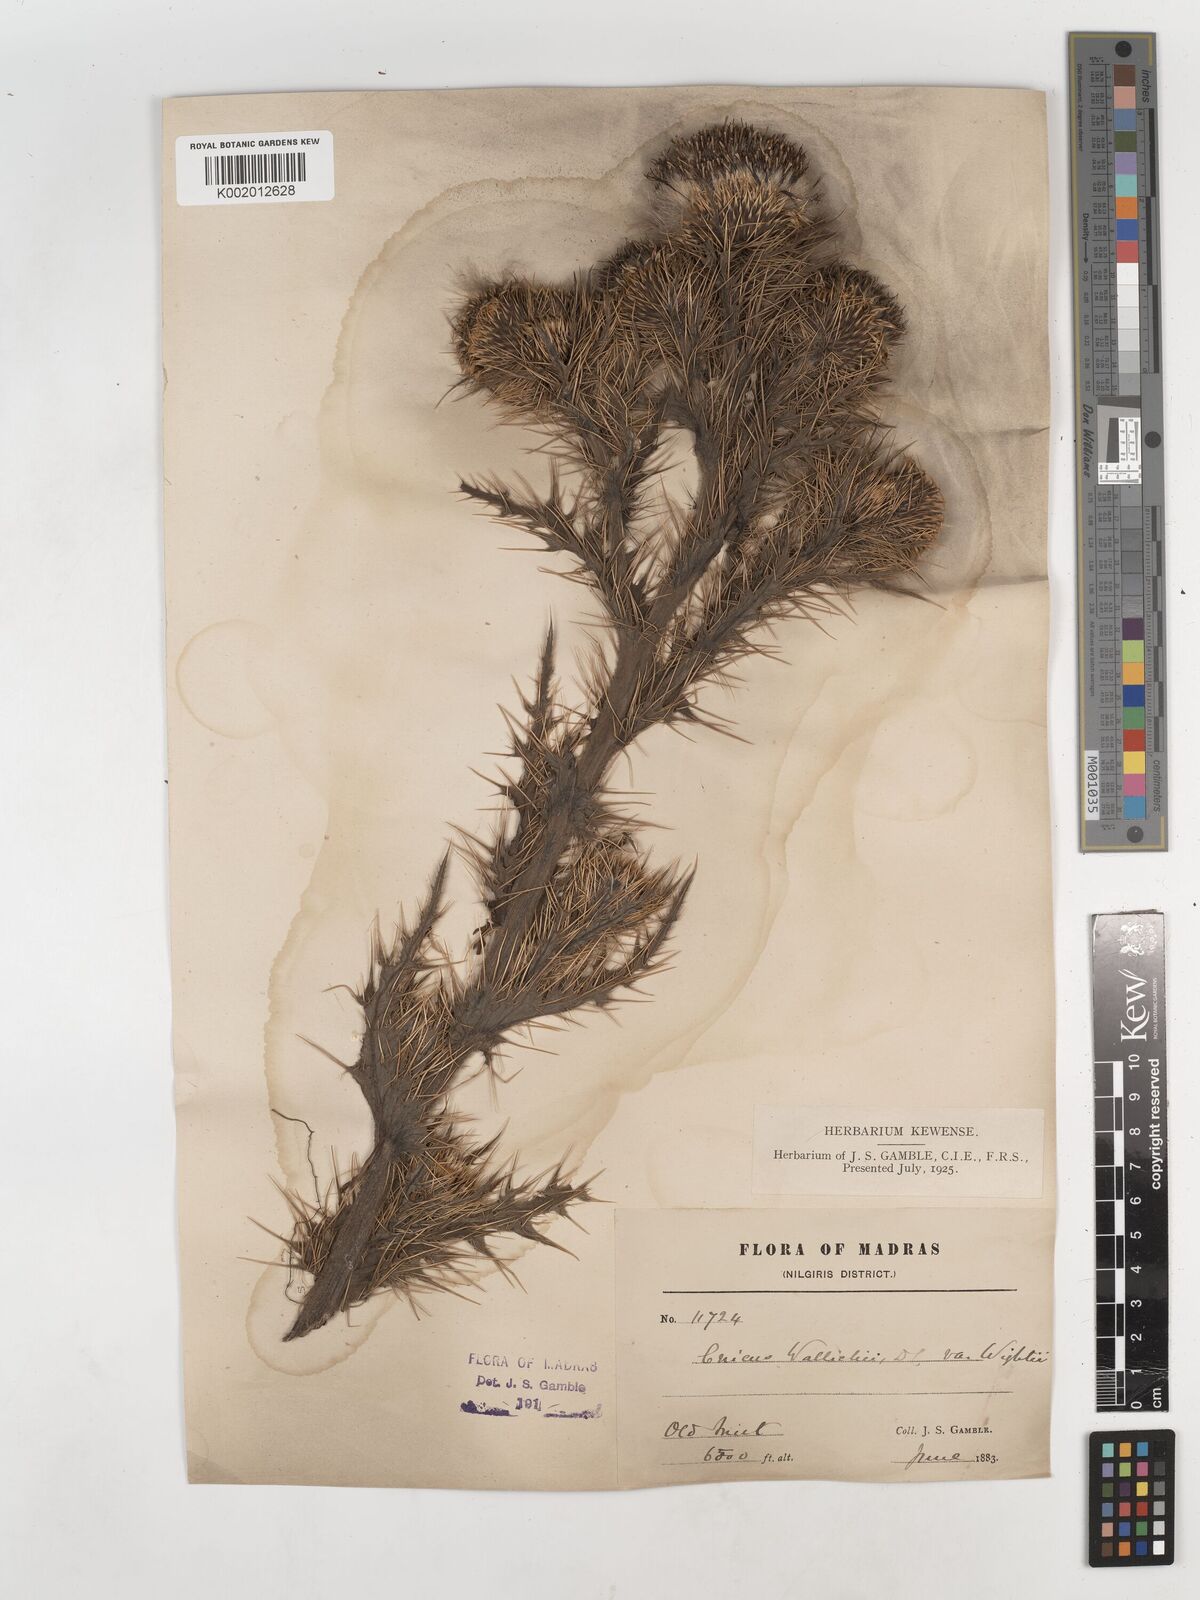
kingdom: Plantae
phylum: Tracheophyta
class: Magnoliopsida
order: Asterales
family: Asteraceae
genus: Cirsium
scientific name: Cirsium wallichii
